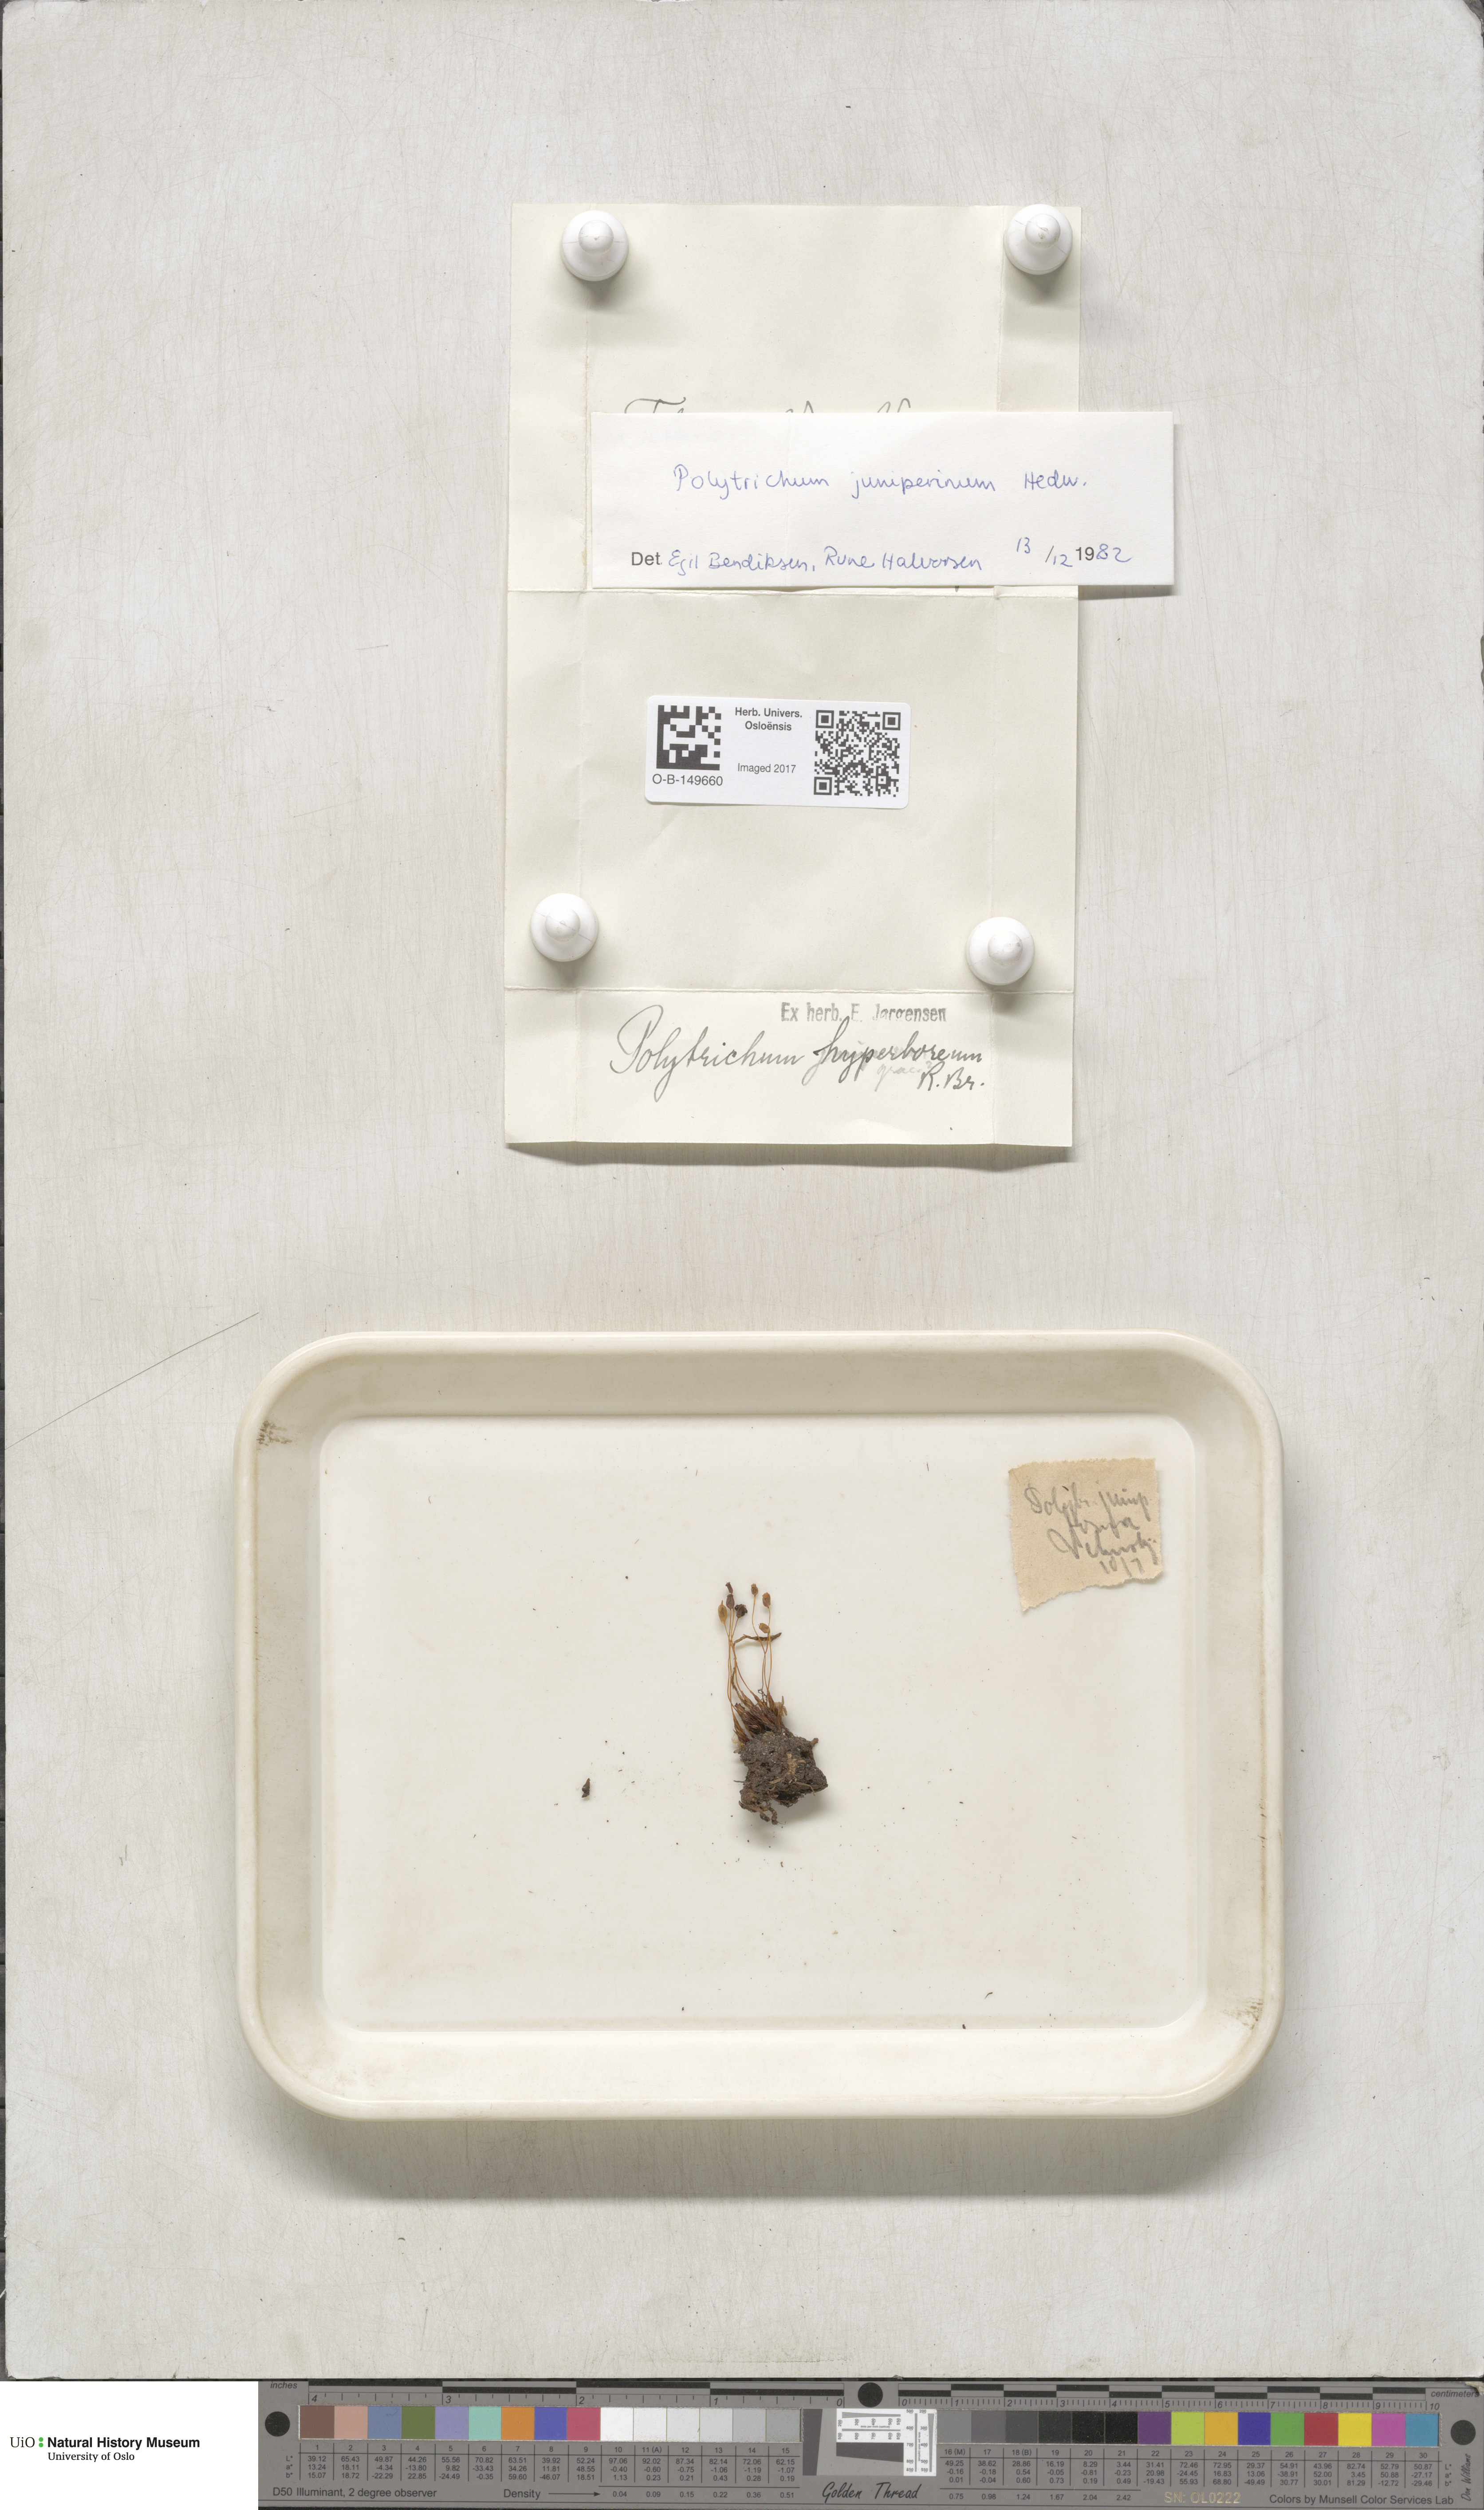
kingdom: Plantae
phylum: Bryophyta
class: Polytrichopsida
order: Polytrichales
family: Polytrichaceae
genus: Polytrichum
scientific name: Polytrichum juniperinum
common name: Juniper haircap moss
